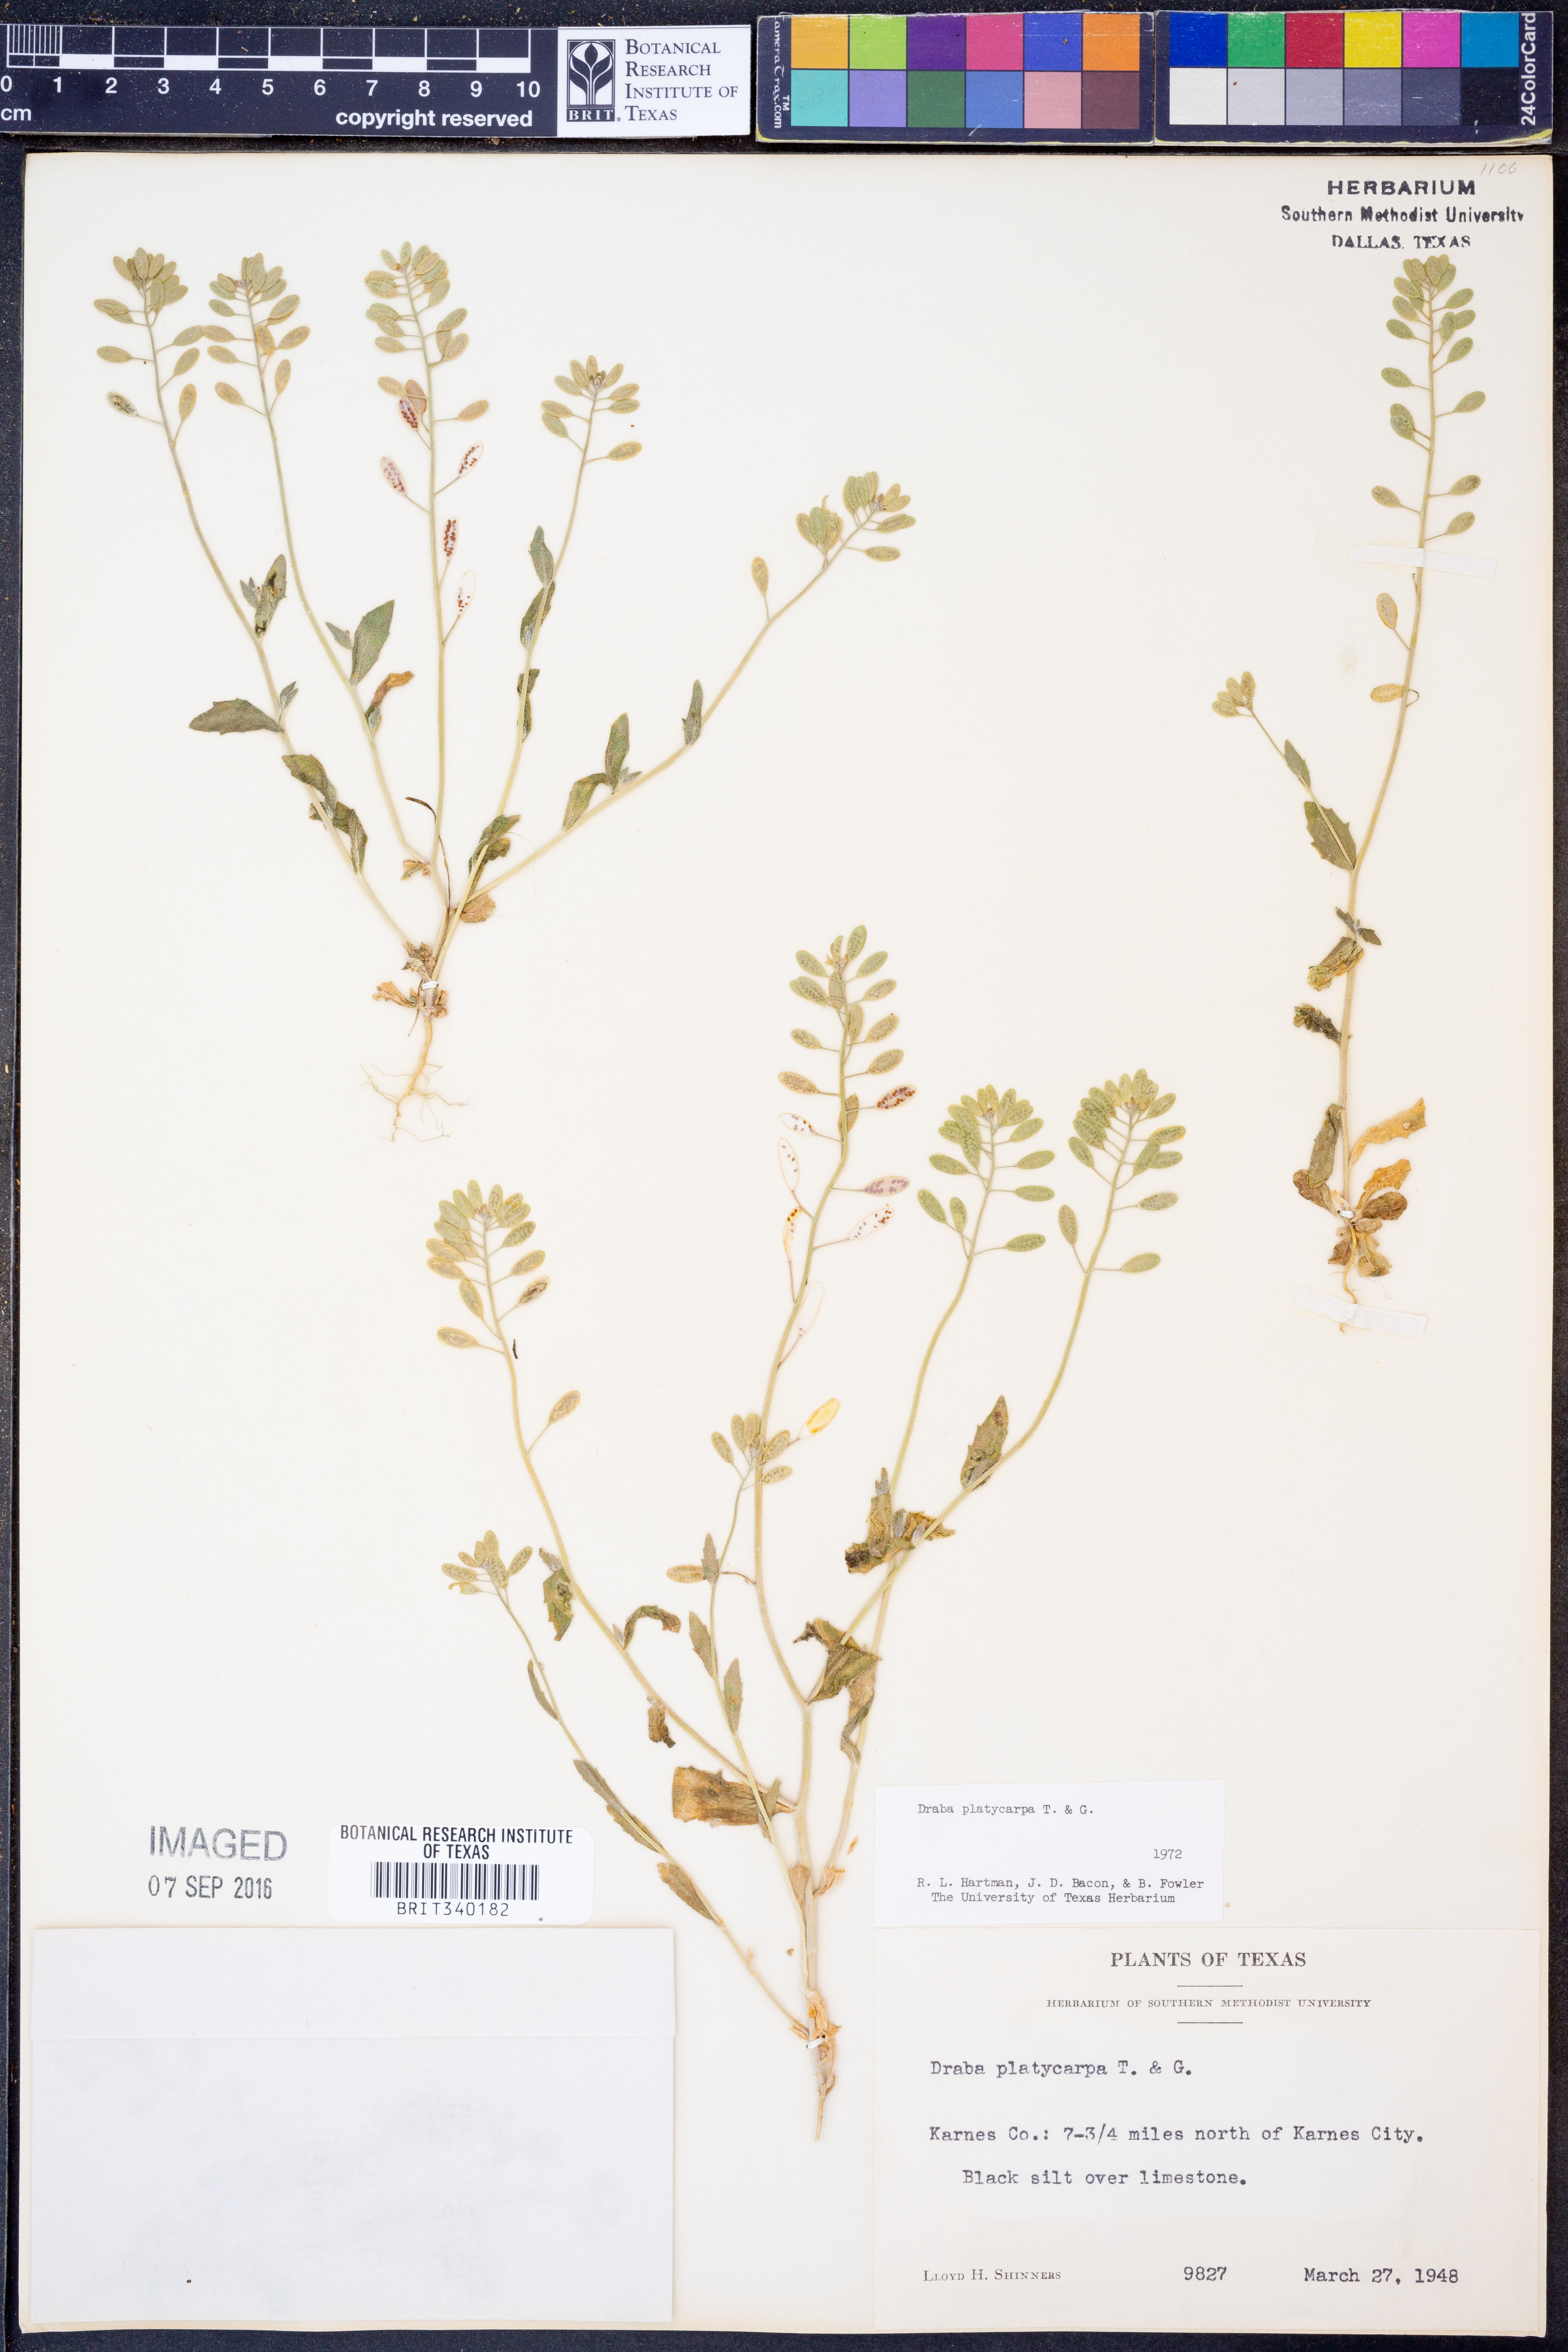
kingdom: Plantae
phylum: Tracheophyta
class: Magnoliopsida
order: Brassicales
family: Brassicaceae
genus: Tomostima
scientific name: Tomostima platycarpa
